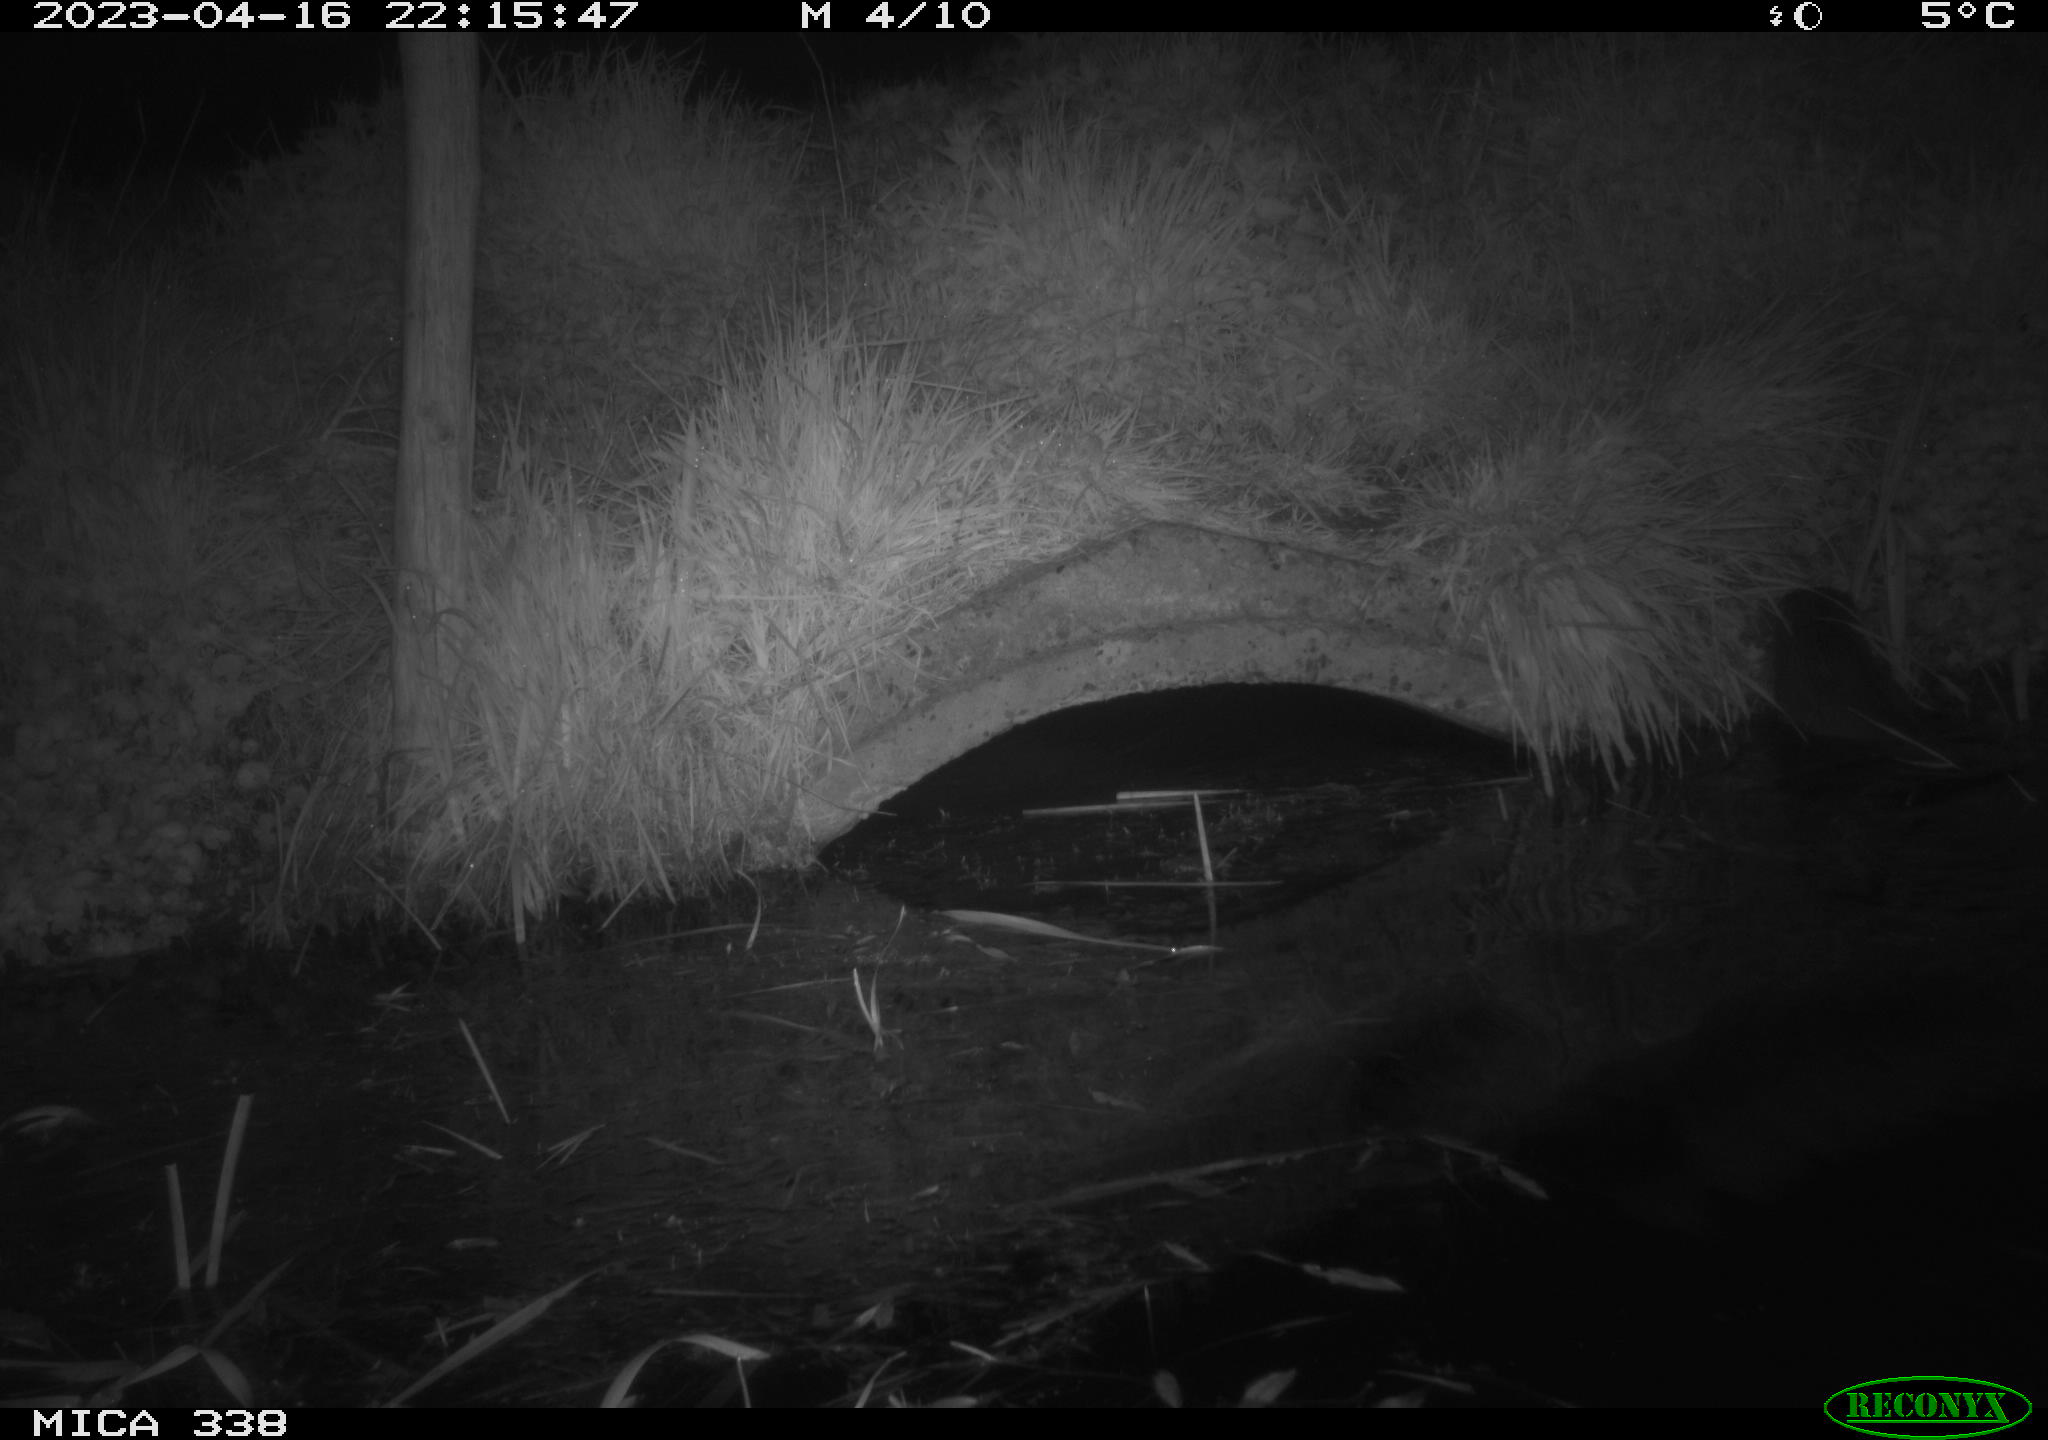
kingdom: Animalia
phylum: Chordata
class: Mammalia
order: Carnivora
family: Mustelidae
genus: Lutra
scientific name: Lutra lutra
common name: European otter
